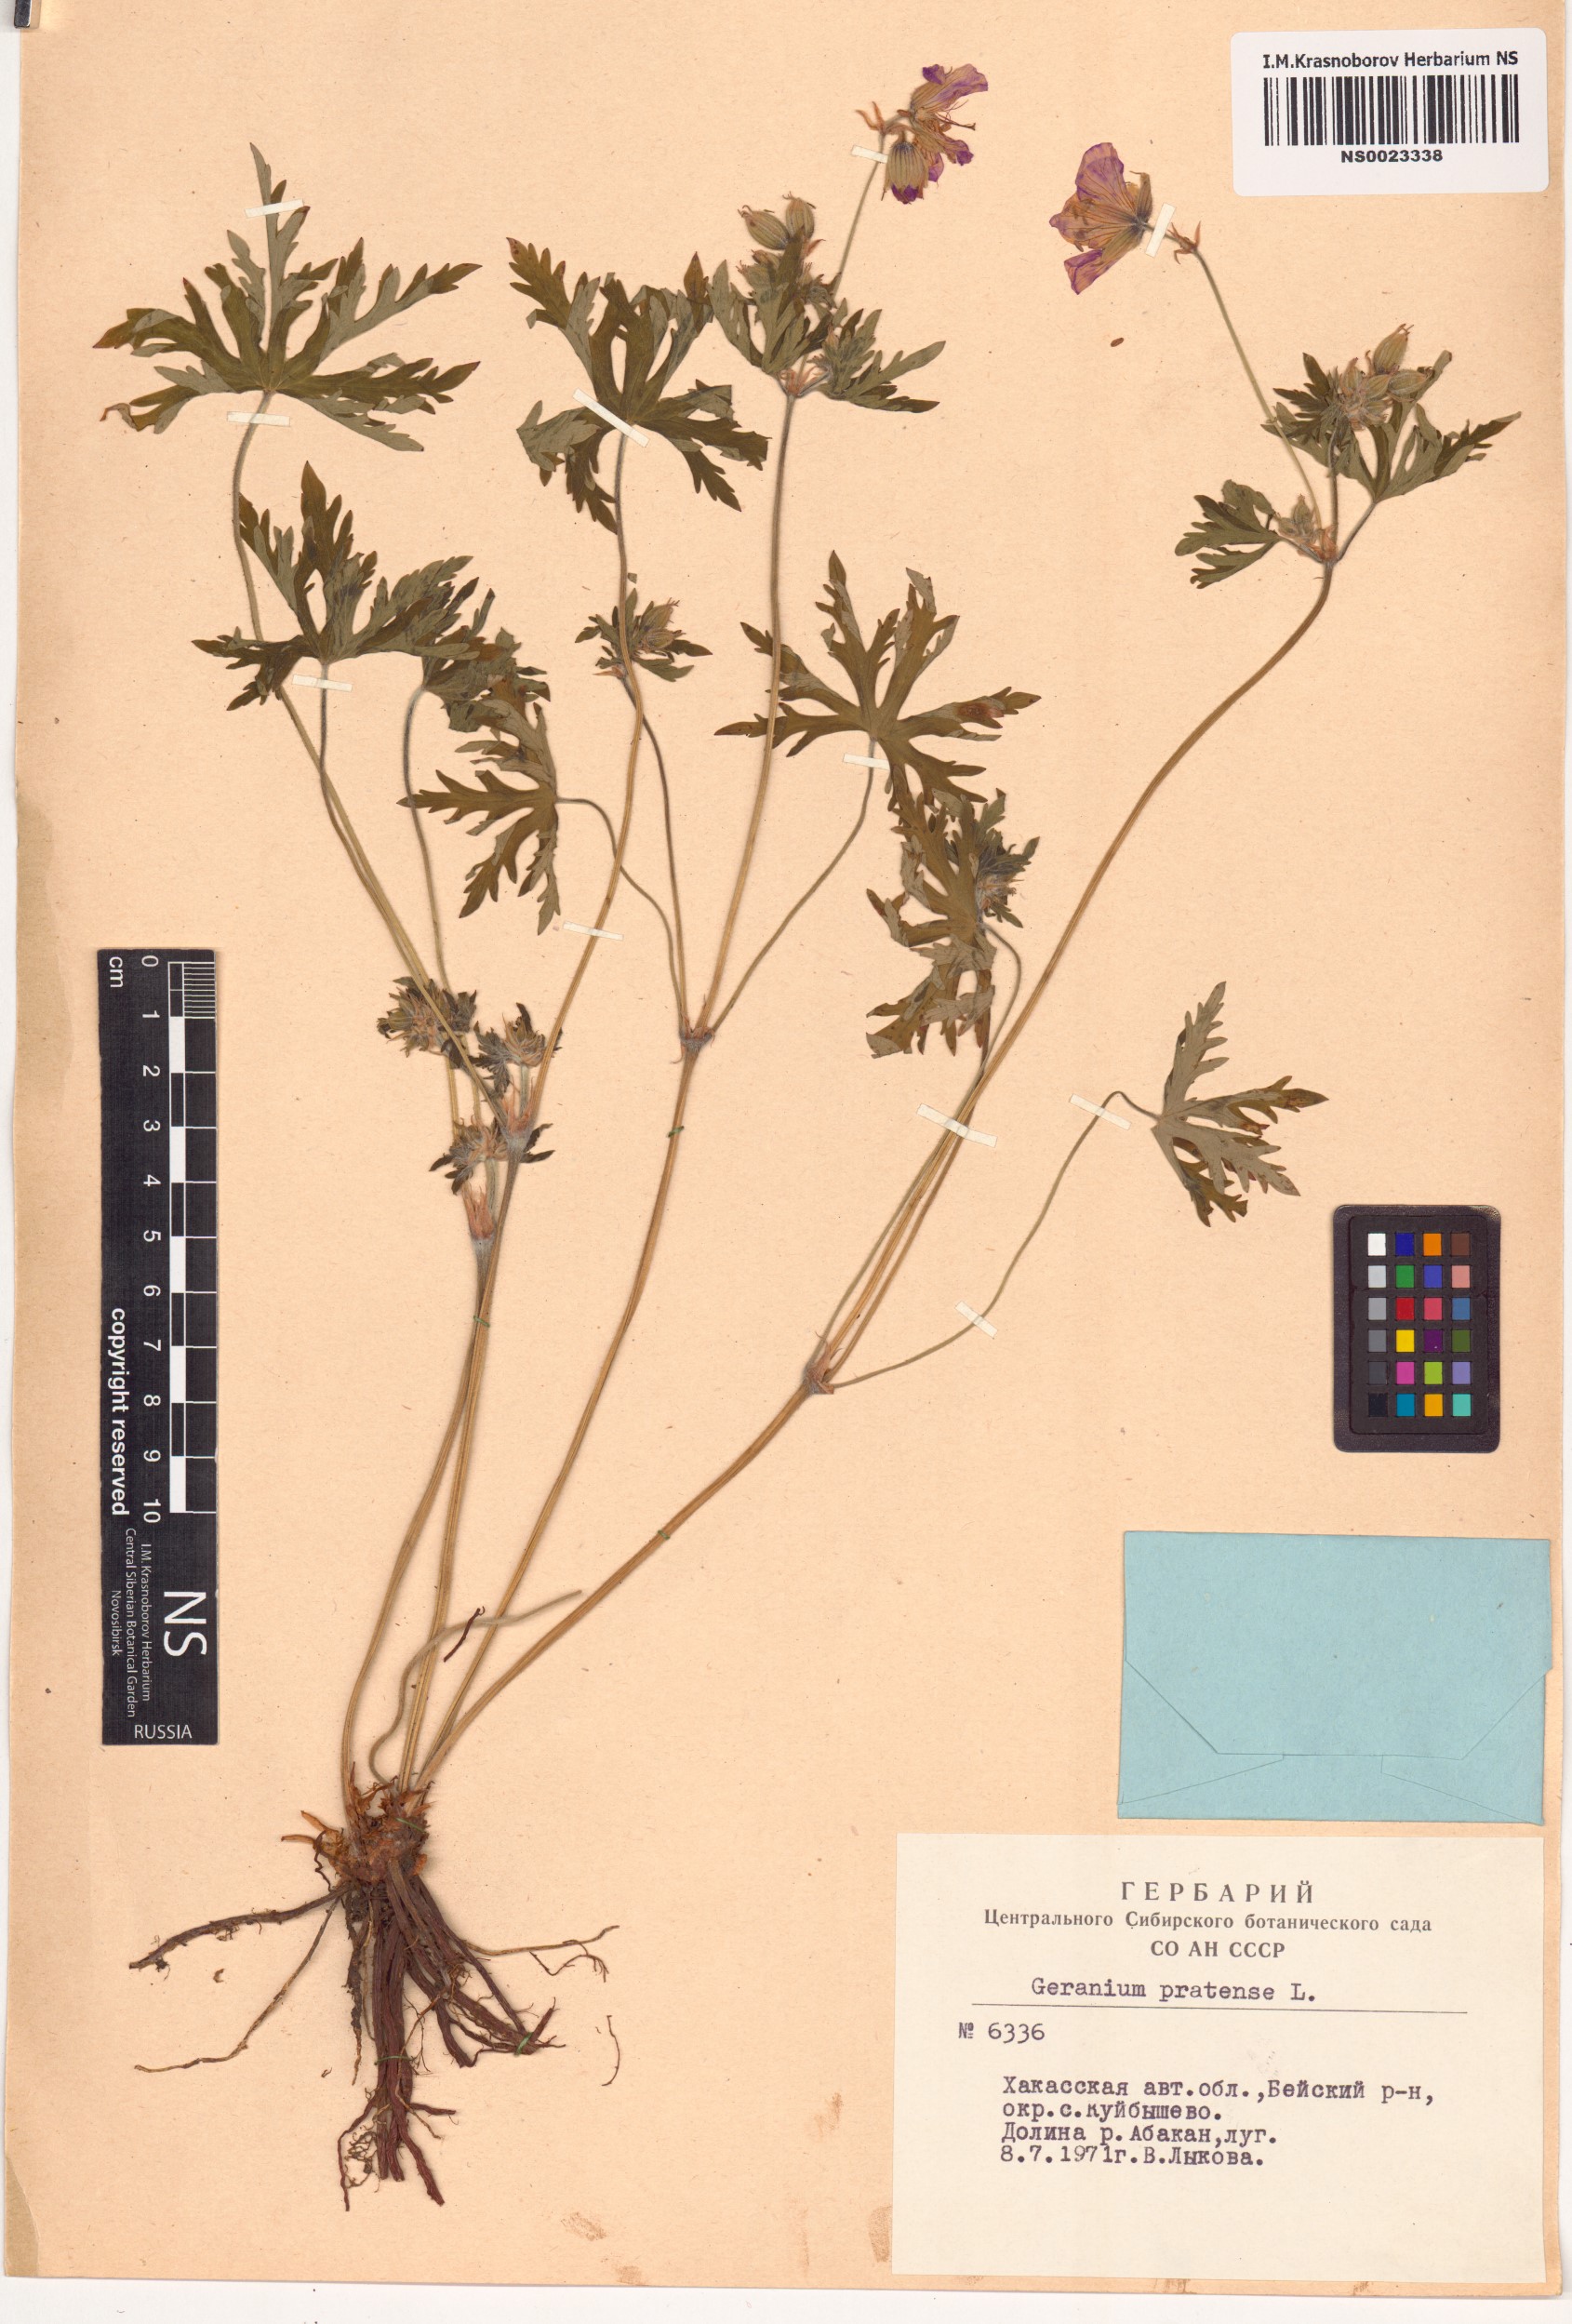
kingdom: Plantae
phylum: Tracheophyta
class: Magnoliopsida
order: Geraniales
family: Geraniaceae
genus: Geranium
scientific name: Geranium pratense
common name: Meadow crane's-bill
